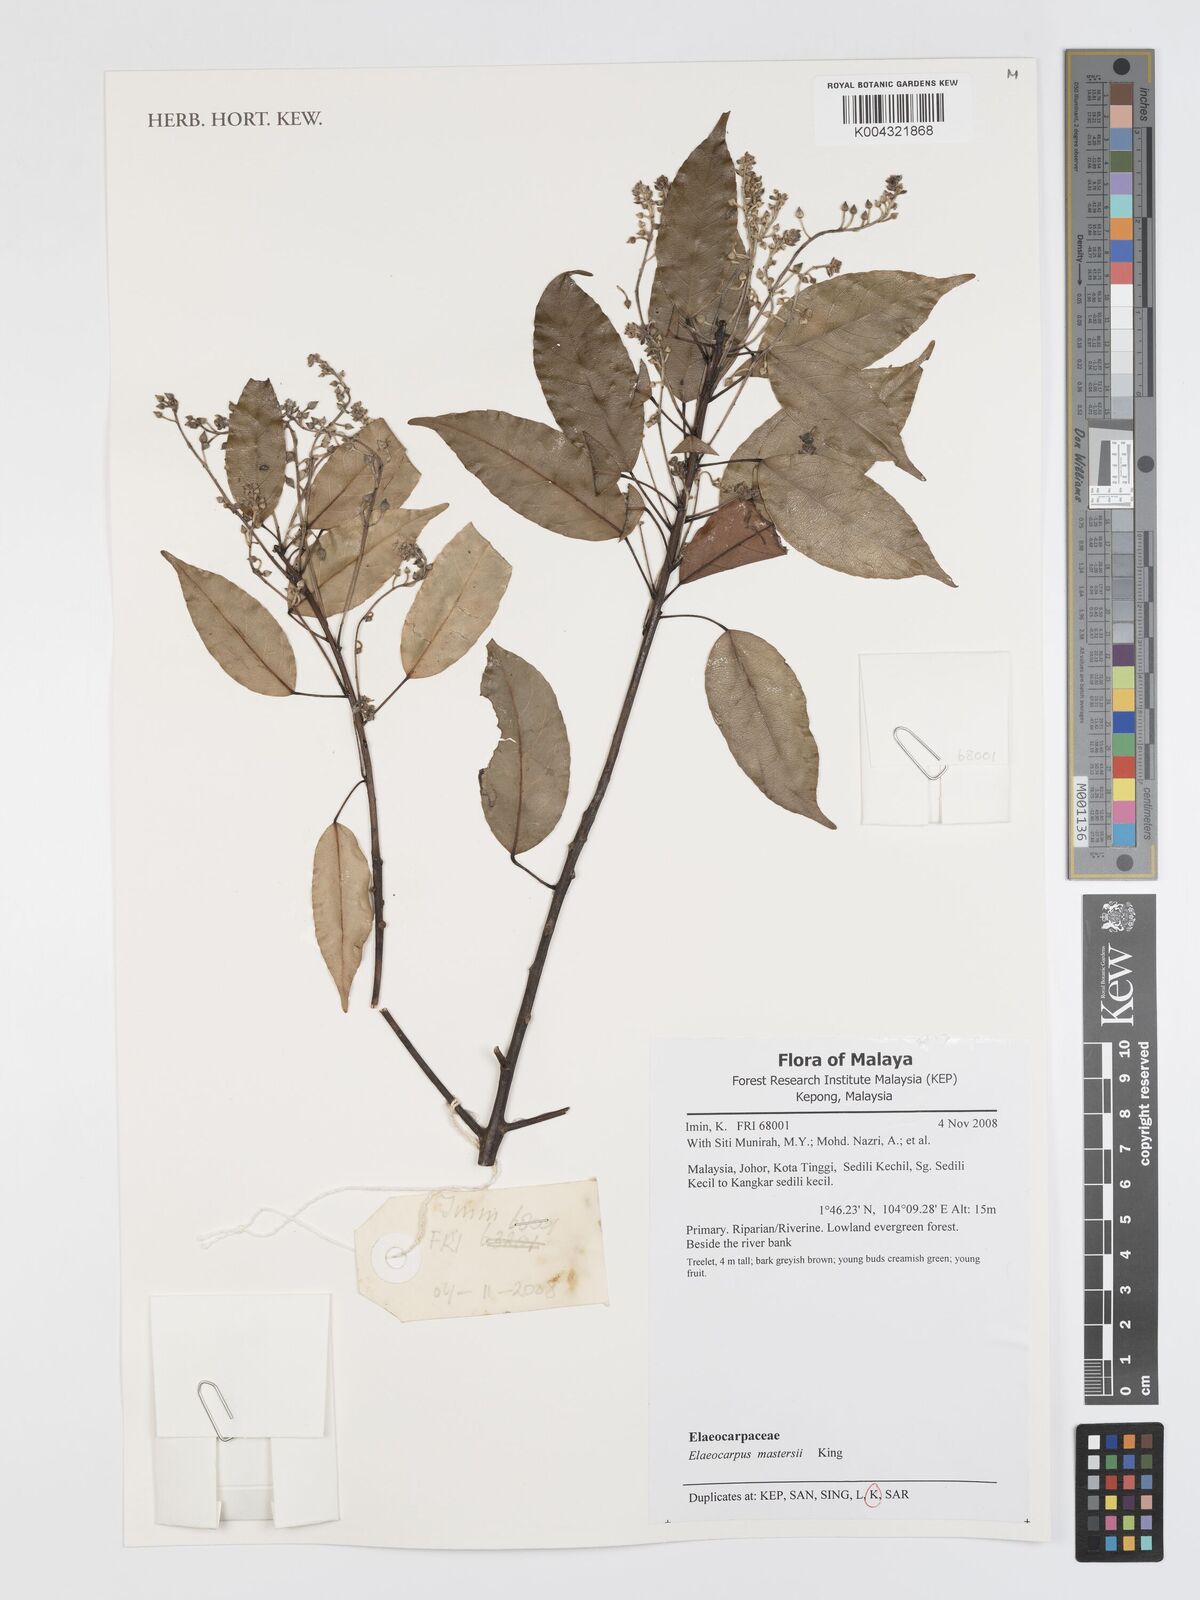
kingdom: Plantae
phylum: Tracheophyta
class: Magnoliopsida
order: Oxalidales
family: Elaeocarpaceae
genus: Elaeocarpus
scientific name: Elaeocarpus mastersii
